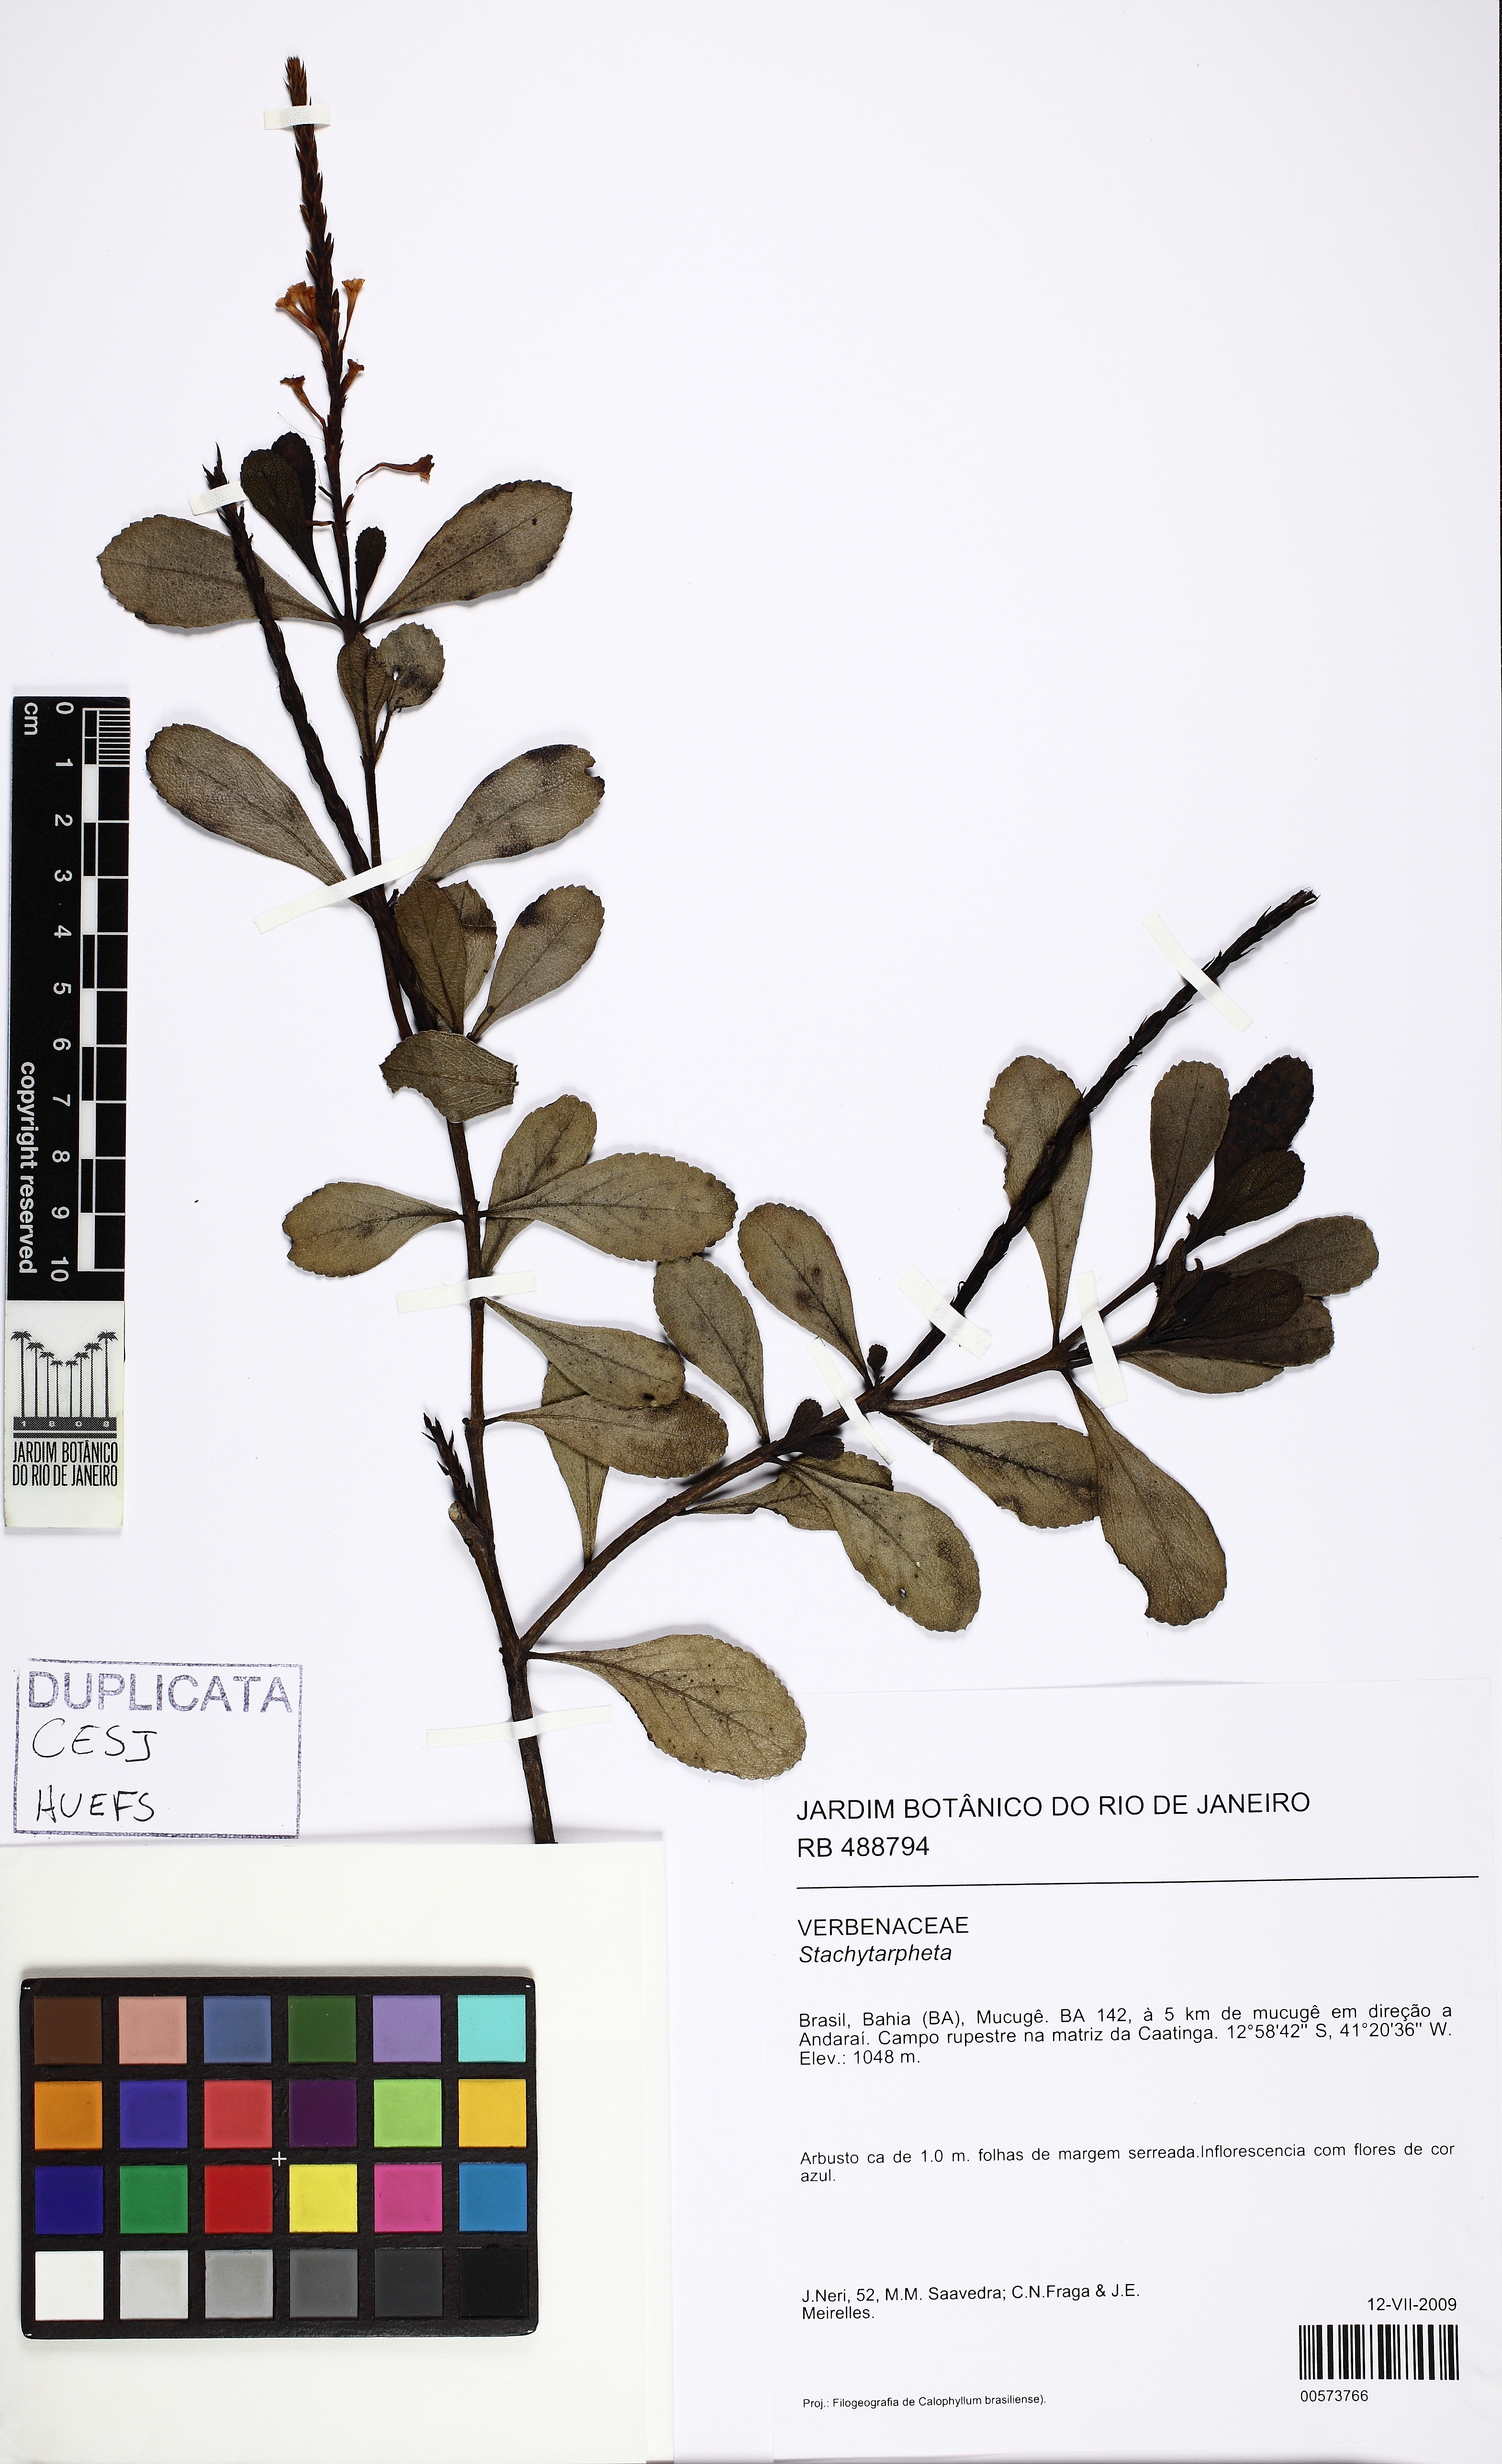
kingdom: Plantae
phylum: Tracheophyta
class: Magnoliopsida
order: Lamiales
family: Verbenaceae
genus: Stachytarpheta
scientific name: Stachytarpheta crassifolia
